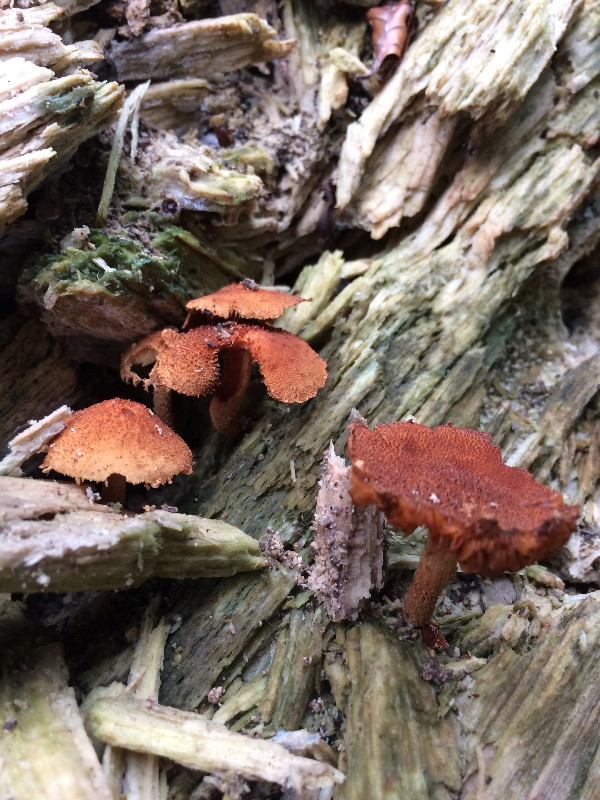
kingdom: Fungi
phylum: Basidiomycota
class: Agaricomycetes
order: Agaricales
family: Tubariaceae
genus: Flammulaster
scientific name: Flammulaster muricatus
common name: pigget grynskælhat
